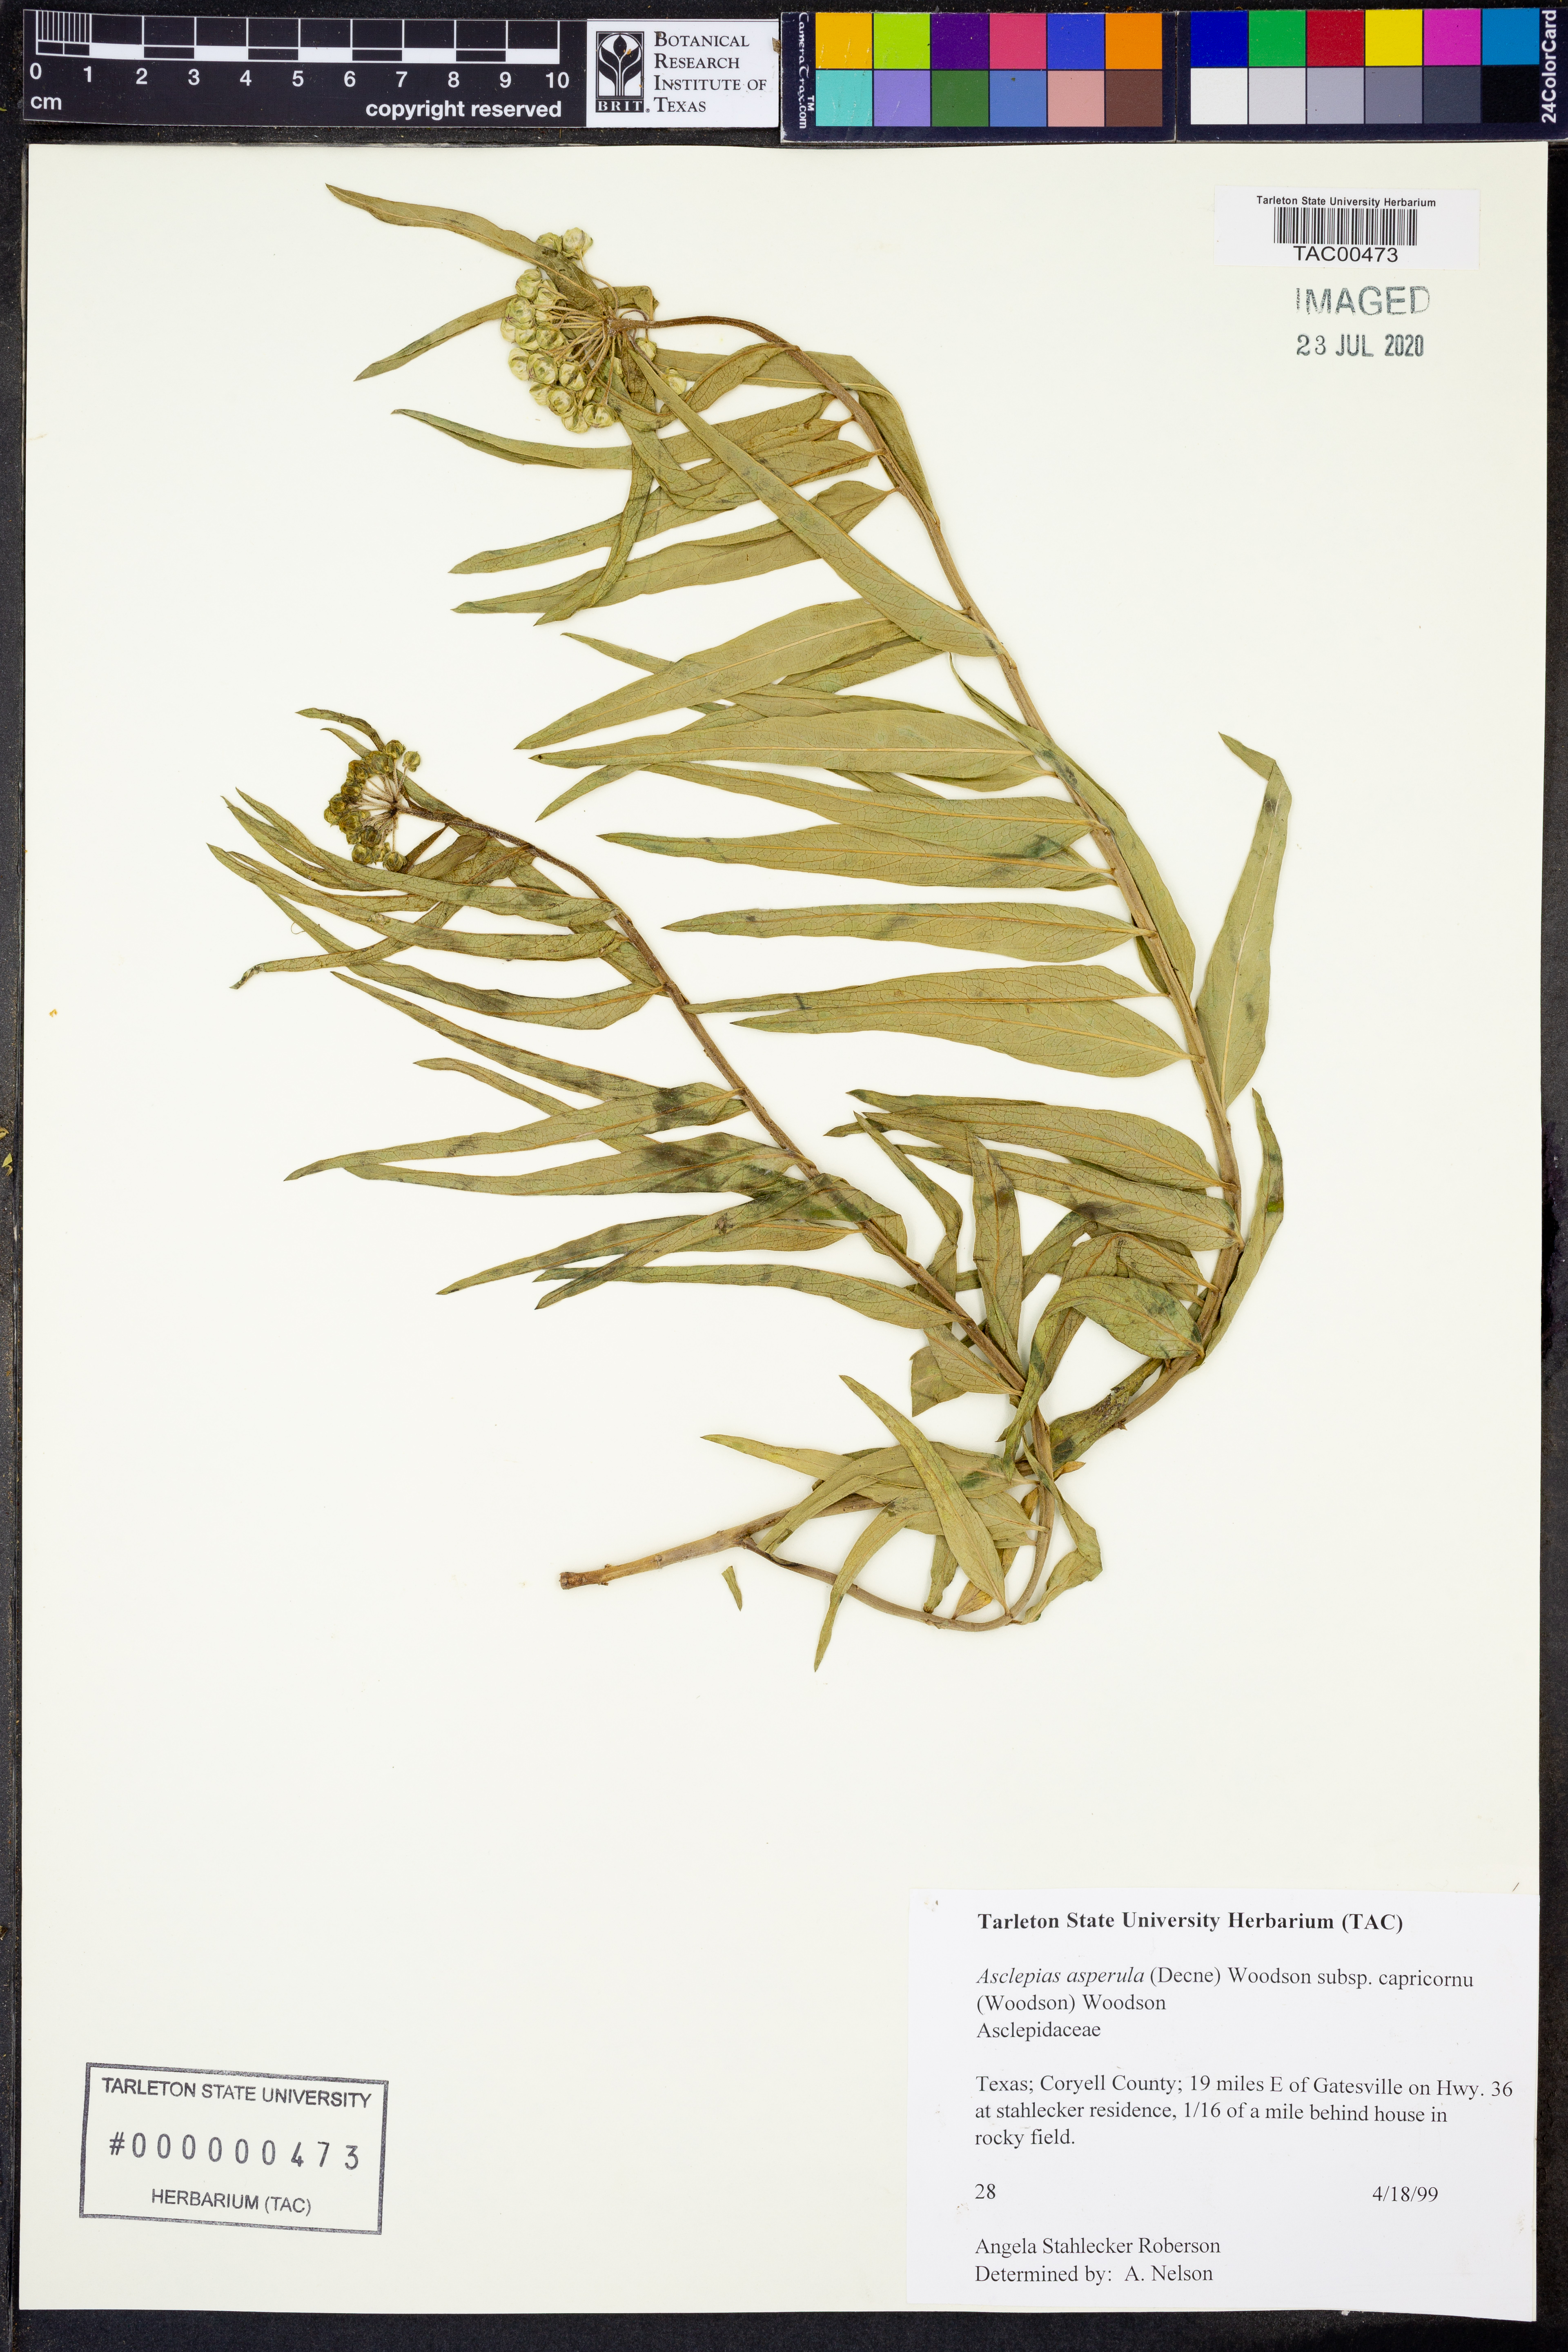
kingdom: Plantae
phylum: Tracheophyta
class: Magnoliopsida
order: Gentianales
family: Apocynaceae
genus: Asclepias
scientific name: Asclepias asperula
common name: Antelope horns
